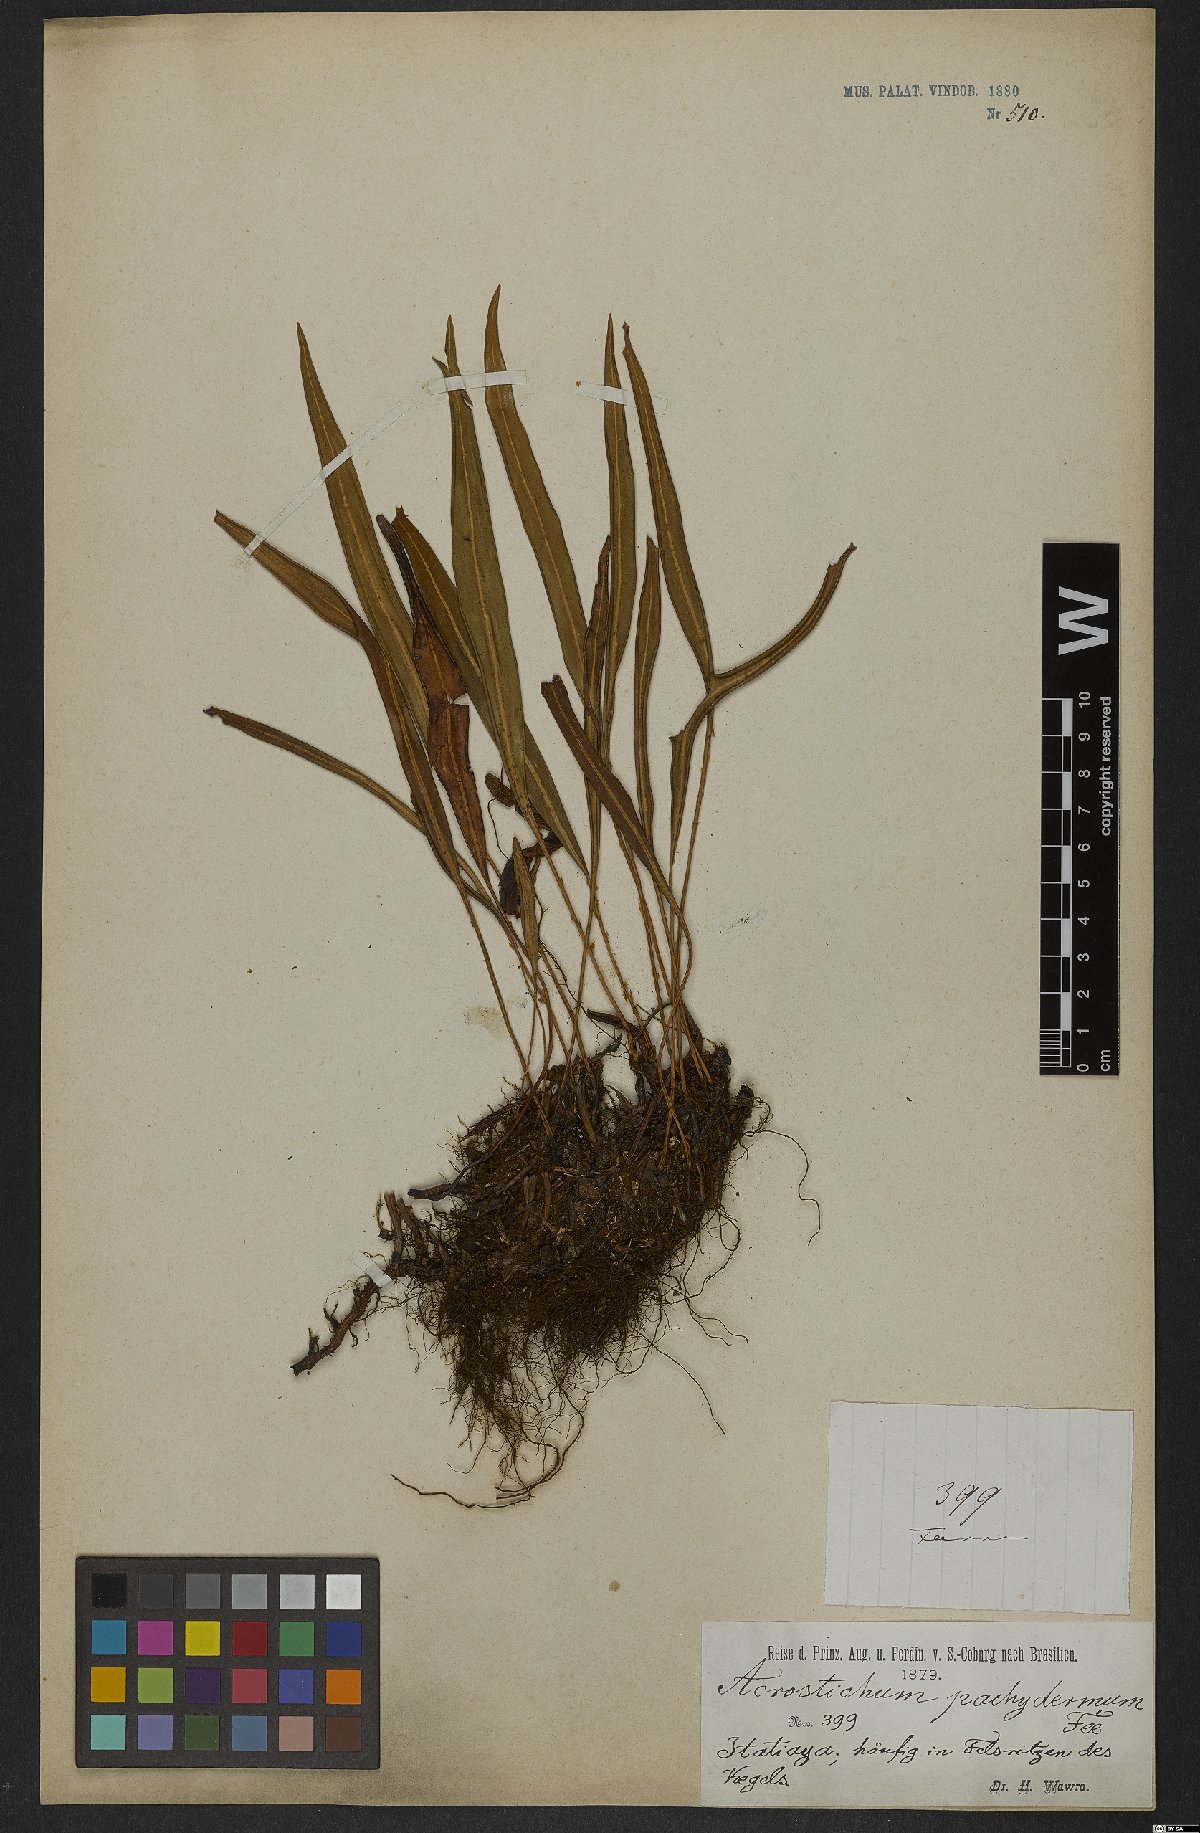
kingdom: Plantae
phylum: Tracheophyta
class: Polypodiopsida
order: Polypodiales
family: Dryopteridaceae
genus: Elaphoglossum
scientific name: Elaphoglossum pachydermum
